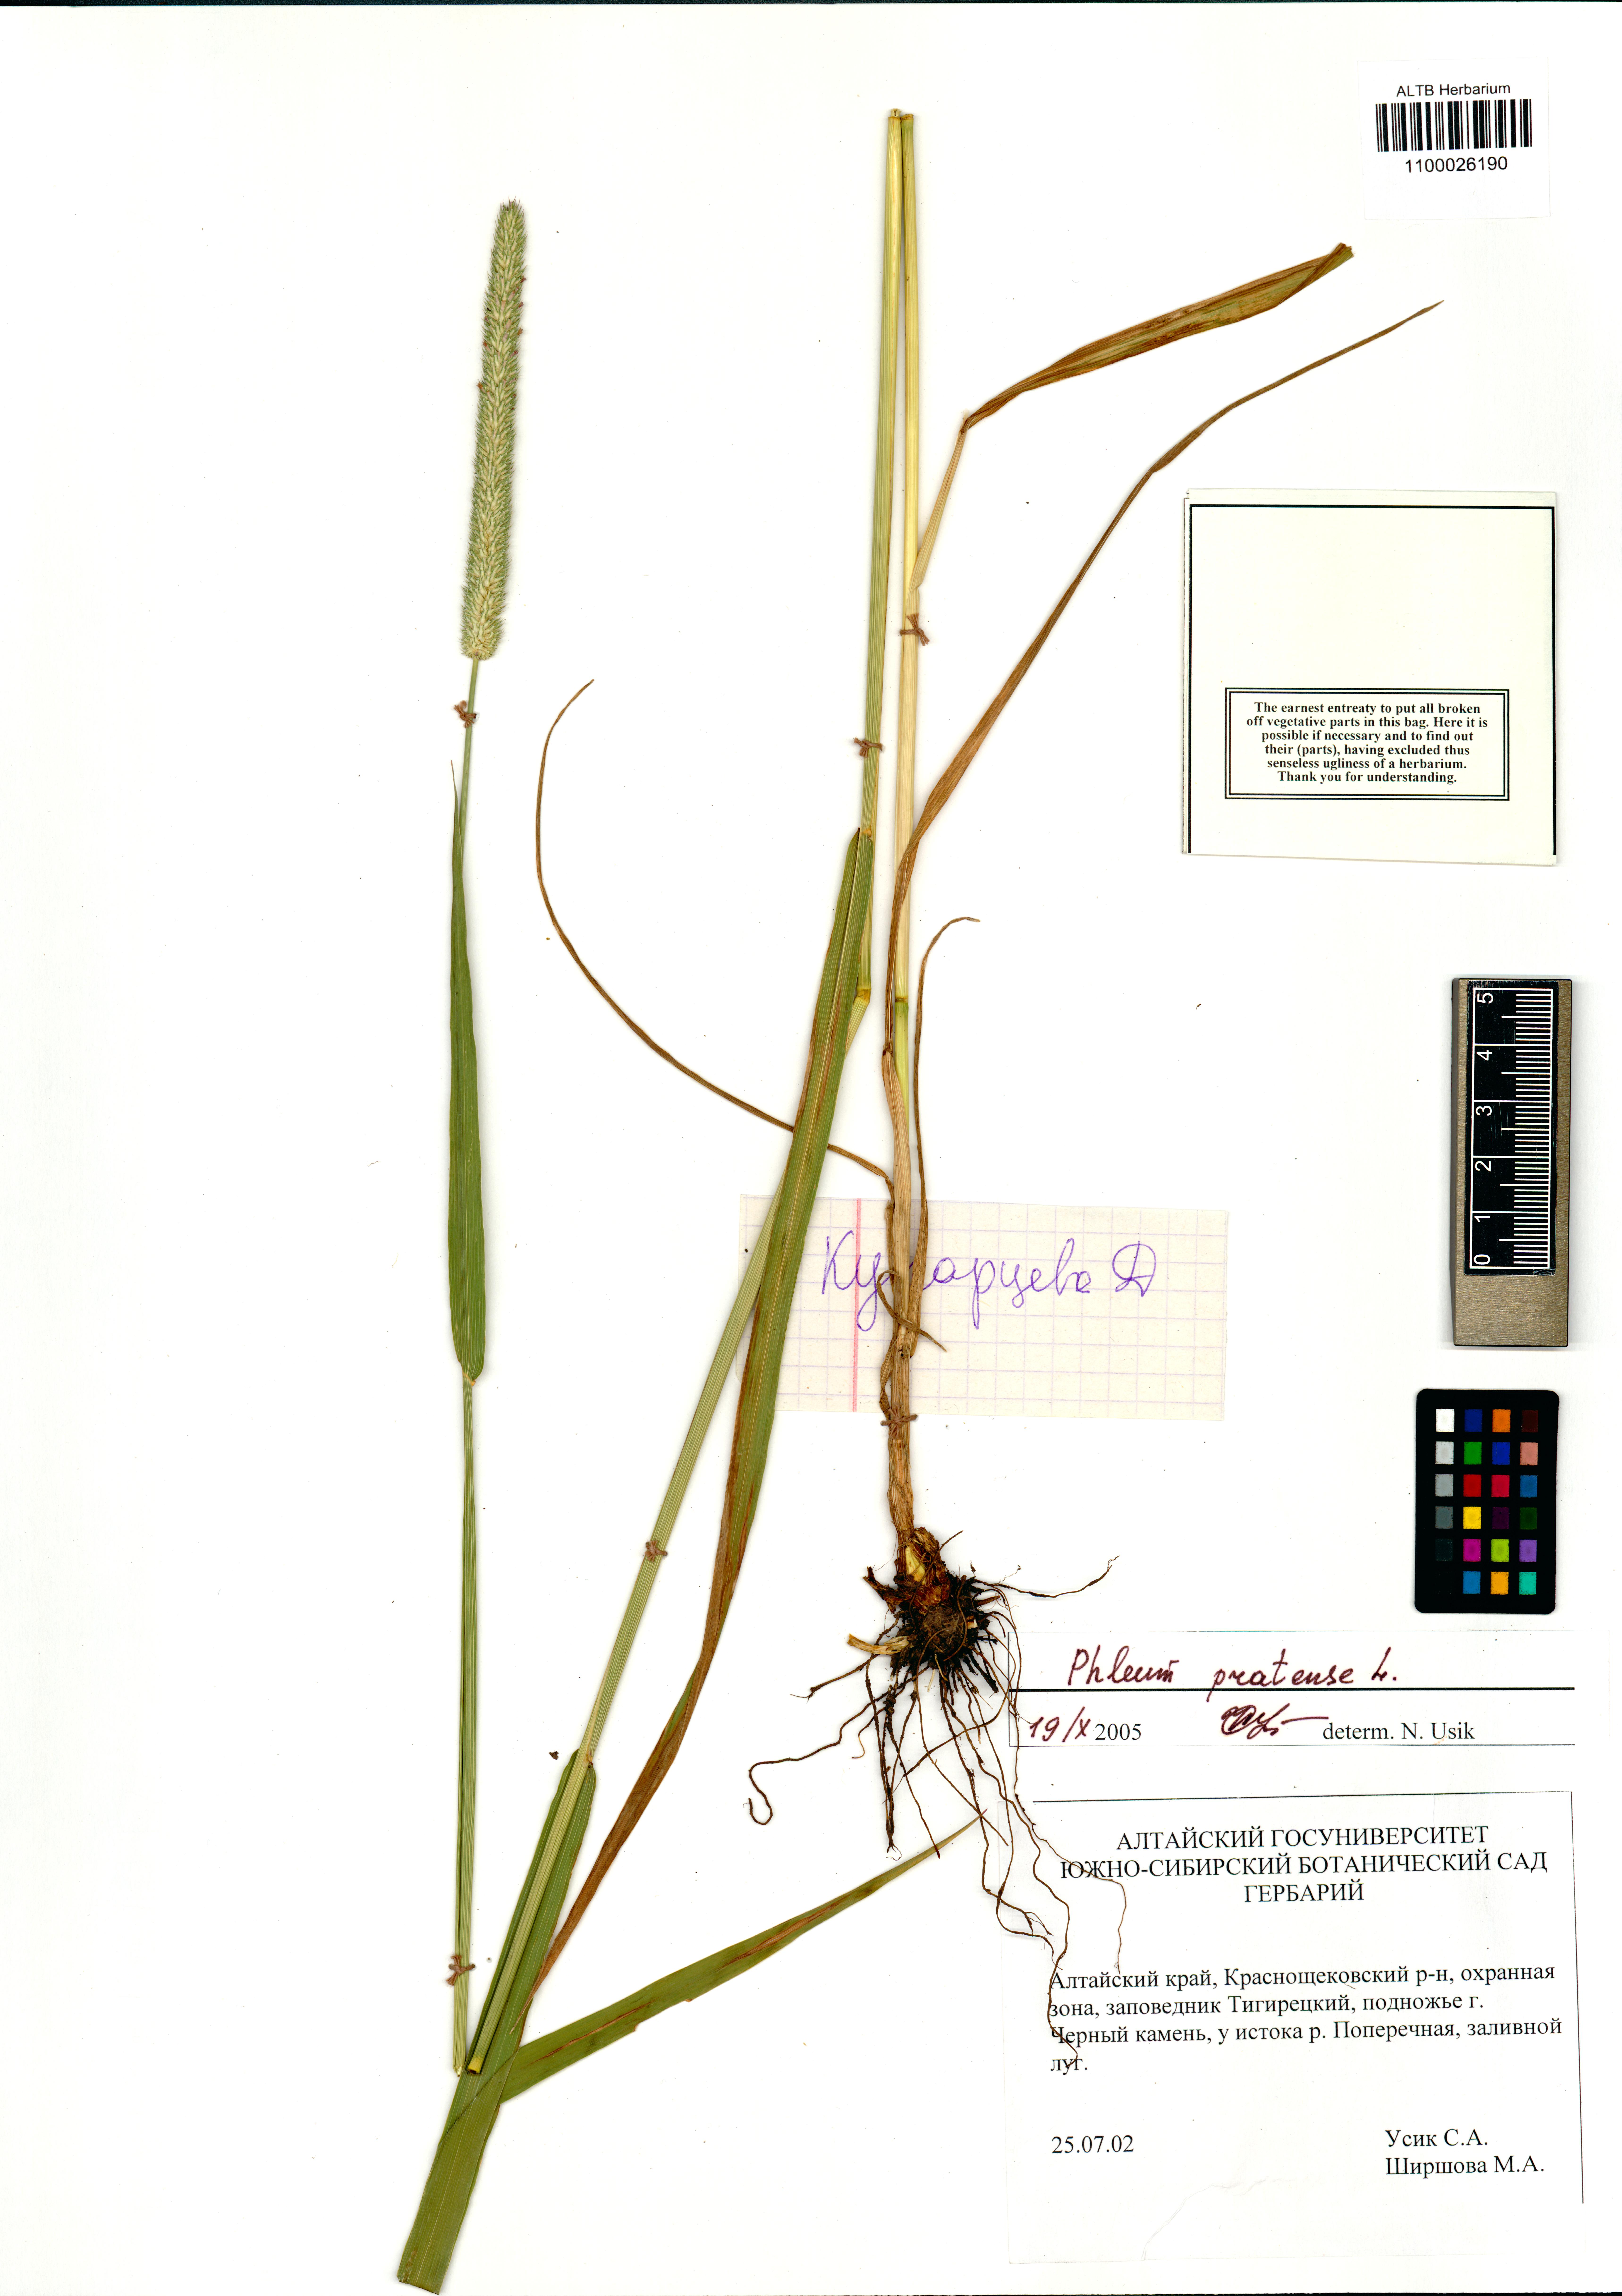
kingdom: Plantae
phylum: Tracheophyta
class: Liliopsida
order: Poales
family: Poaceae
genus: Phleum
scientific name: Phleum pratense
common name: Timothy grass
